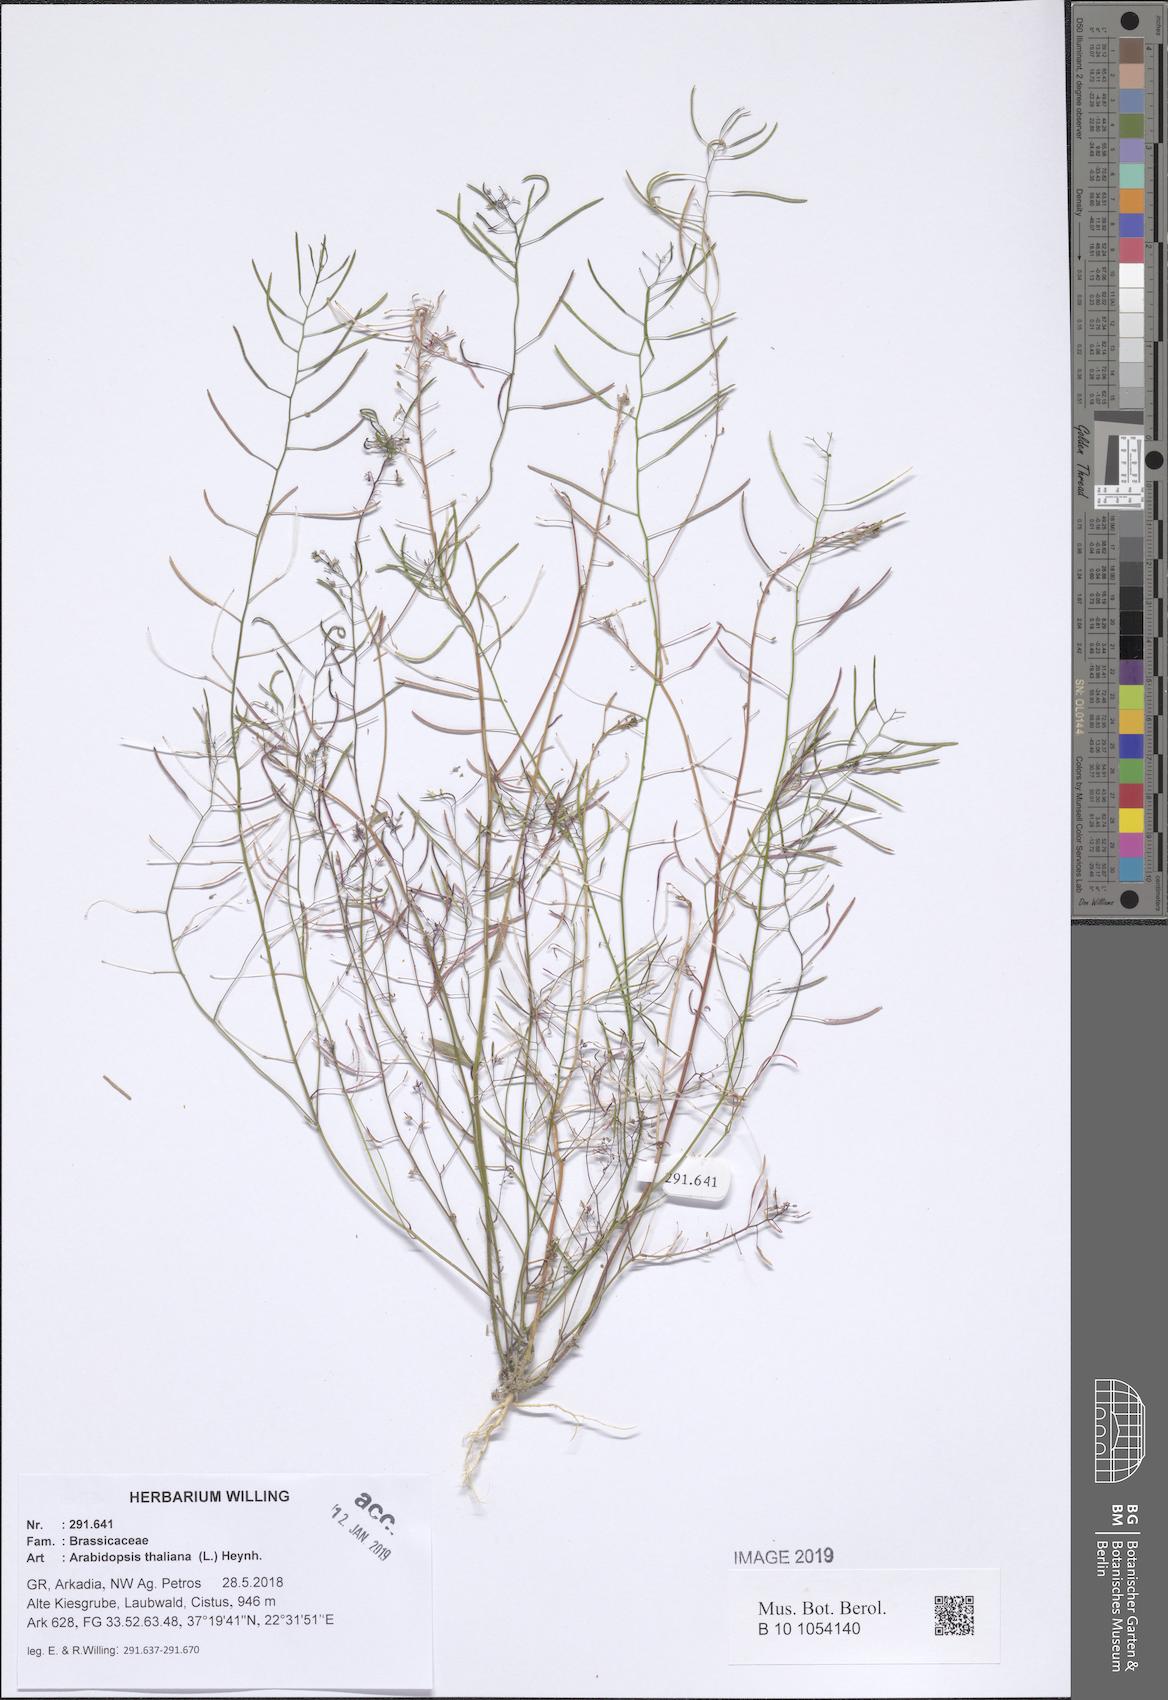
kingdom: Plantae
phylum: Tracheophyta
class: Magnoliopsida
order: Brassicales
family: Brassicaceae
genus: Arabidopsis
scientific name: Arabidopsis thaliana
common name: Thale cress
